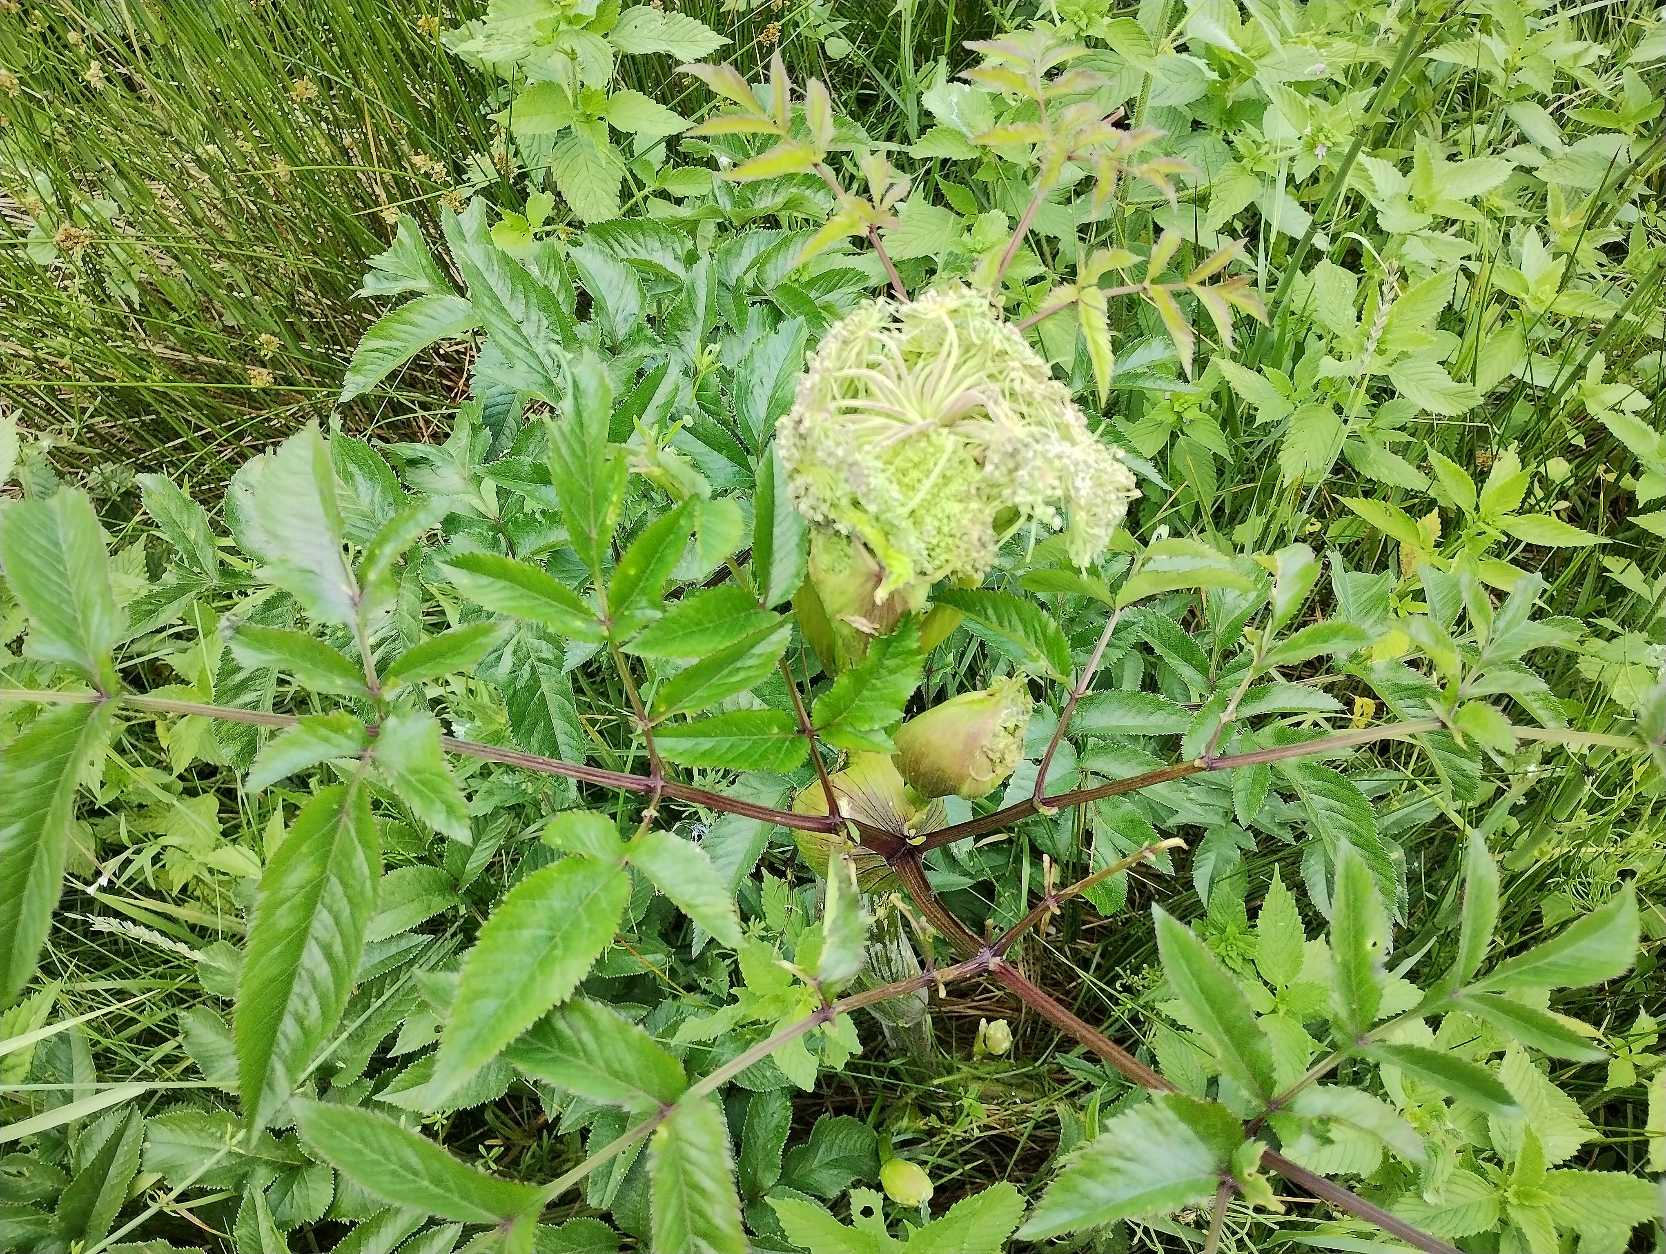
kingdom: Plantae
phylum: Tracheophyta
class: Magnoliopsida
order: Apiales
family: Apiaceae
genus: Angelica
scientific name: Angelica sylvestris
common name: Angelik
